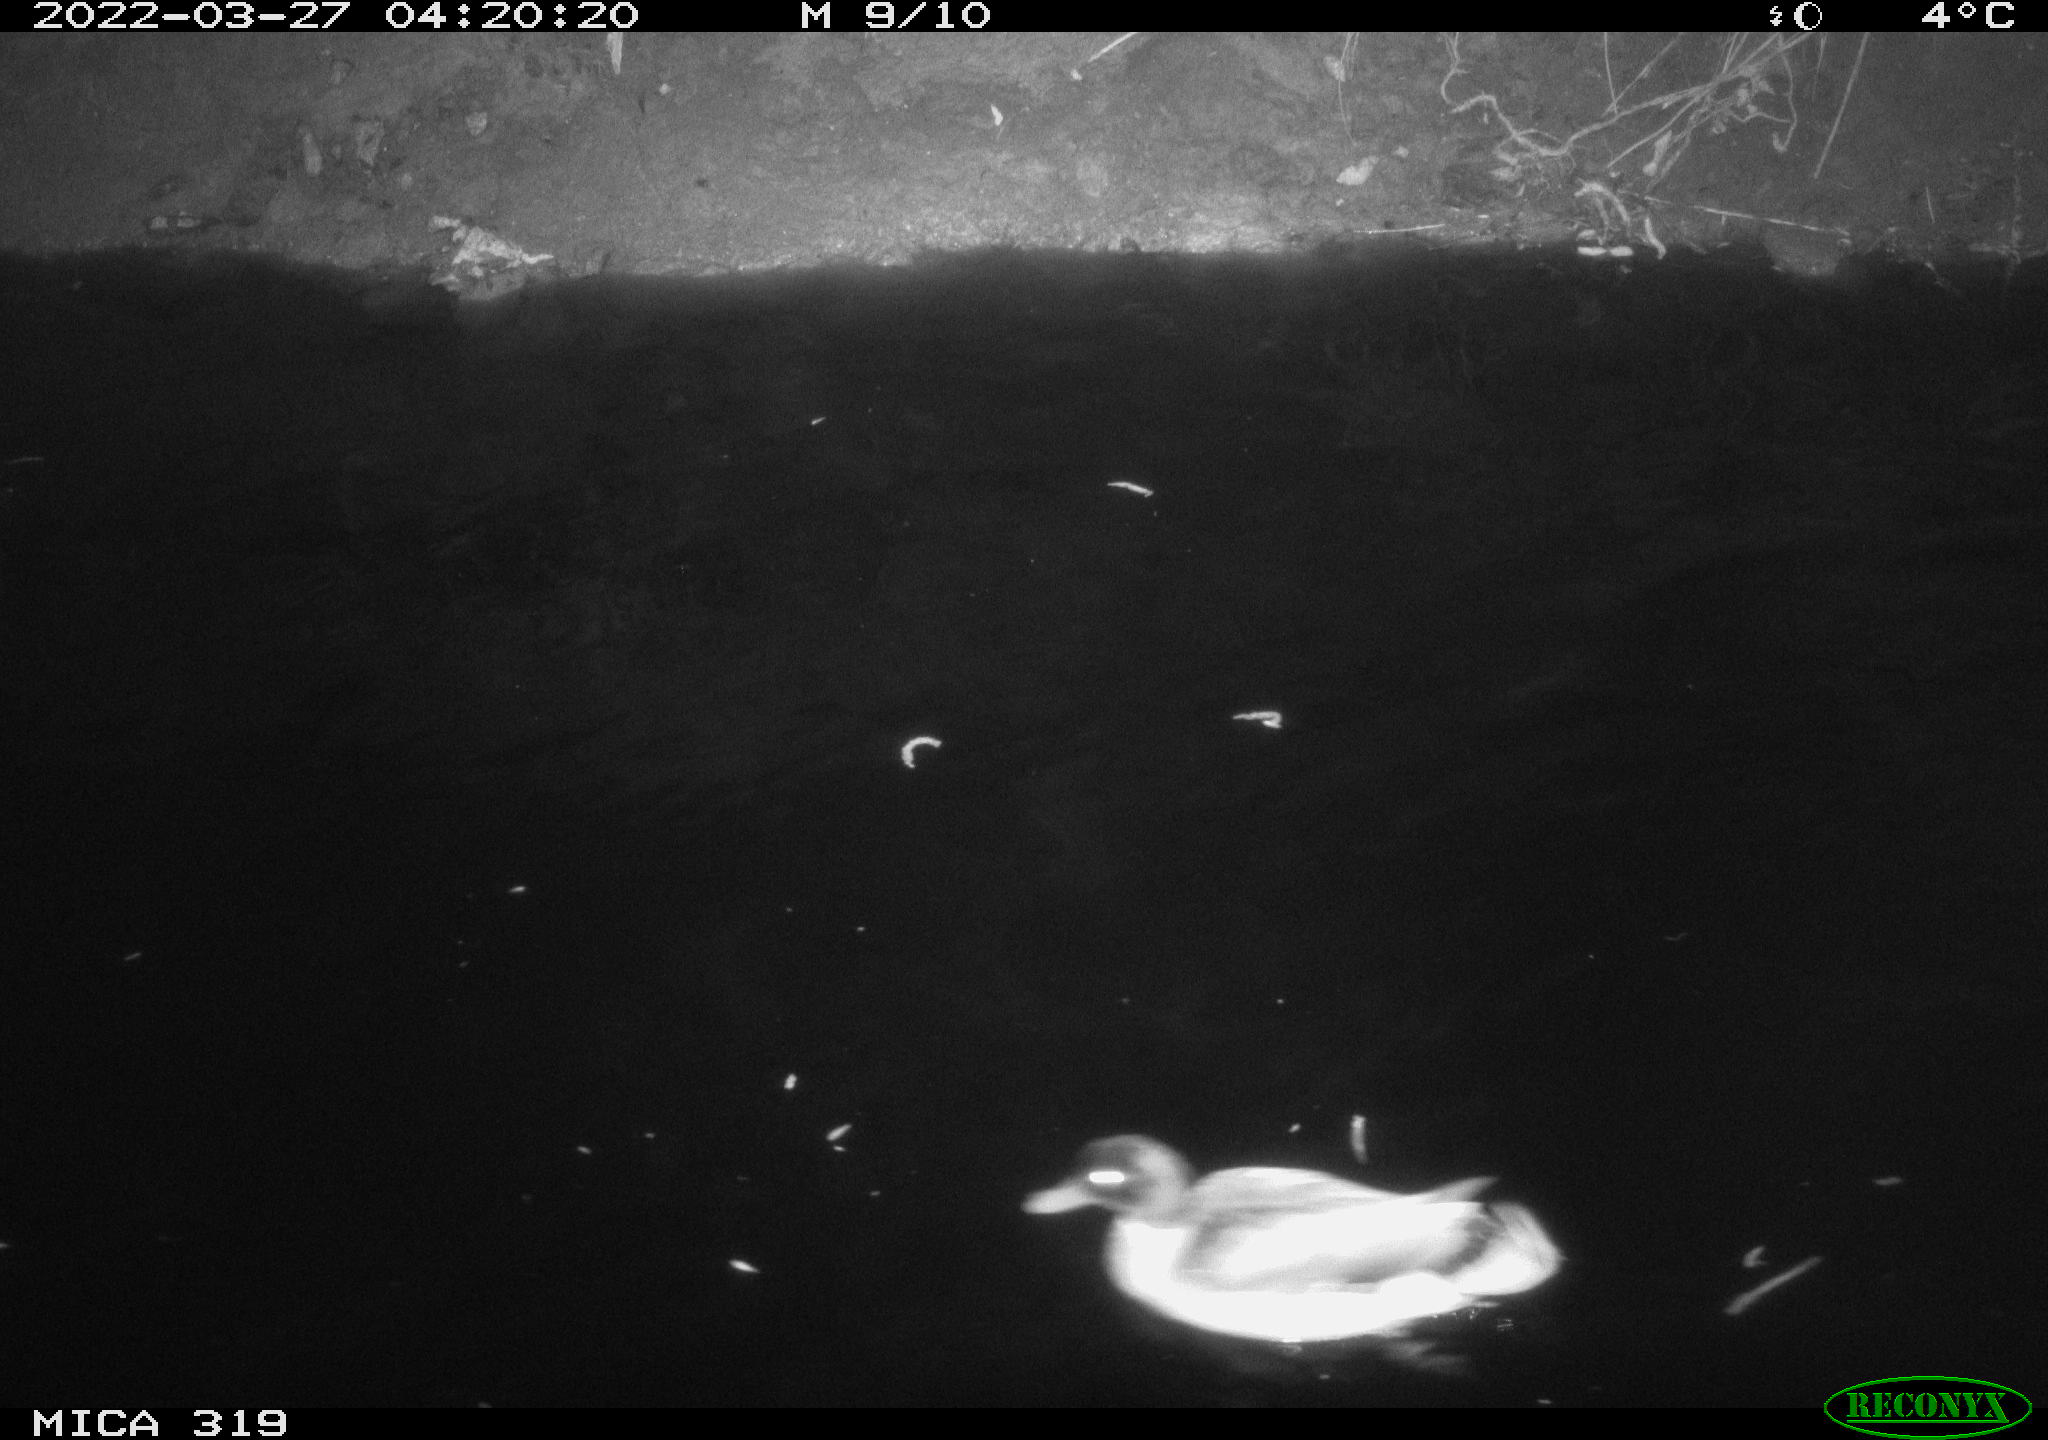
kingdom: Animalia
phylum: Chordata
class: Aves
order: Anseriformes
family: Anatidae
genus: Anas
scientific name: Anas platyrhynchos
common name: Mallard
